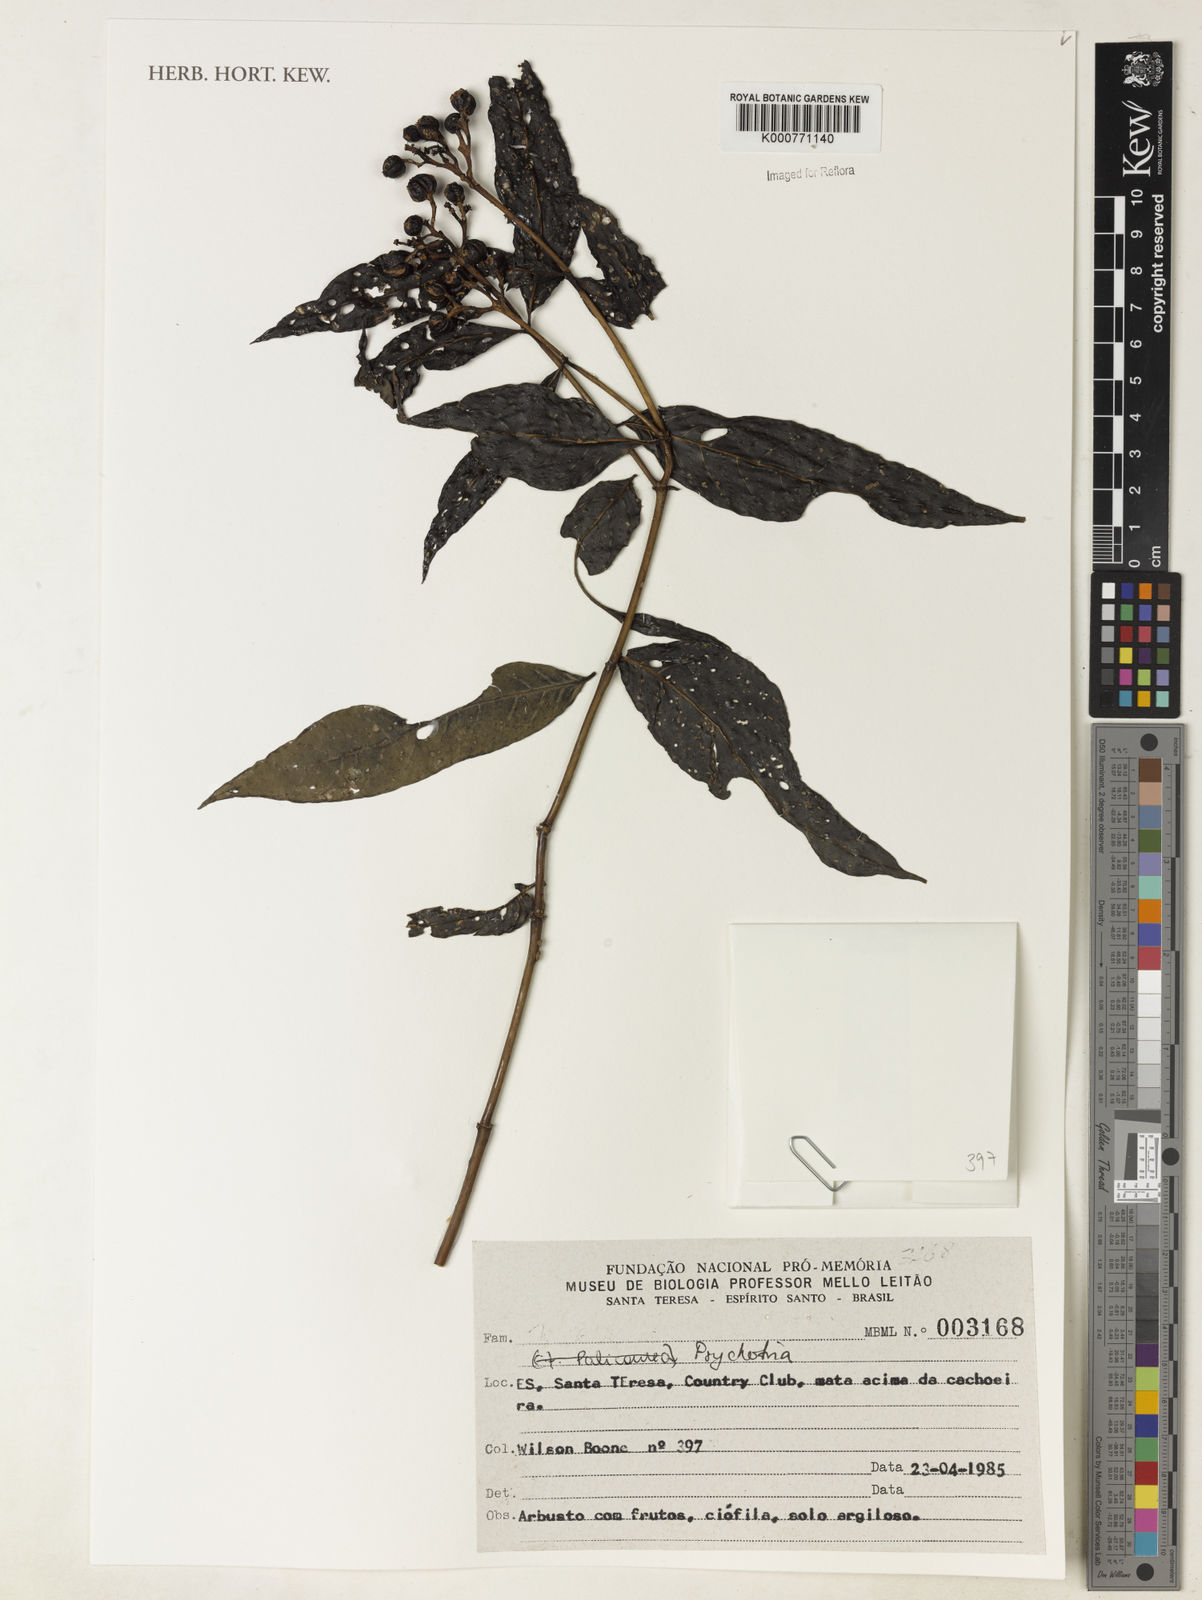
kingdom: Plantae
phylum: Tracheophyta
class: Magnoliopsida
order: Gentianales
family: Rubiaceae
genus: Psychotria
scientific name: Psychotria
